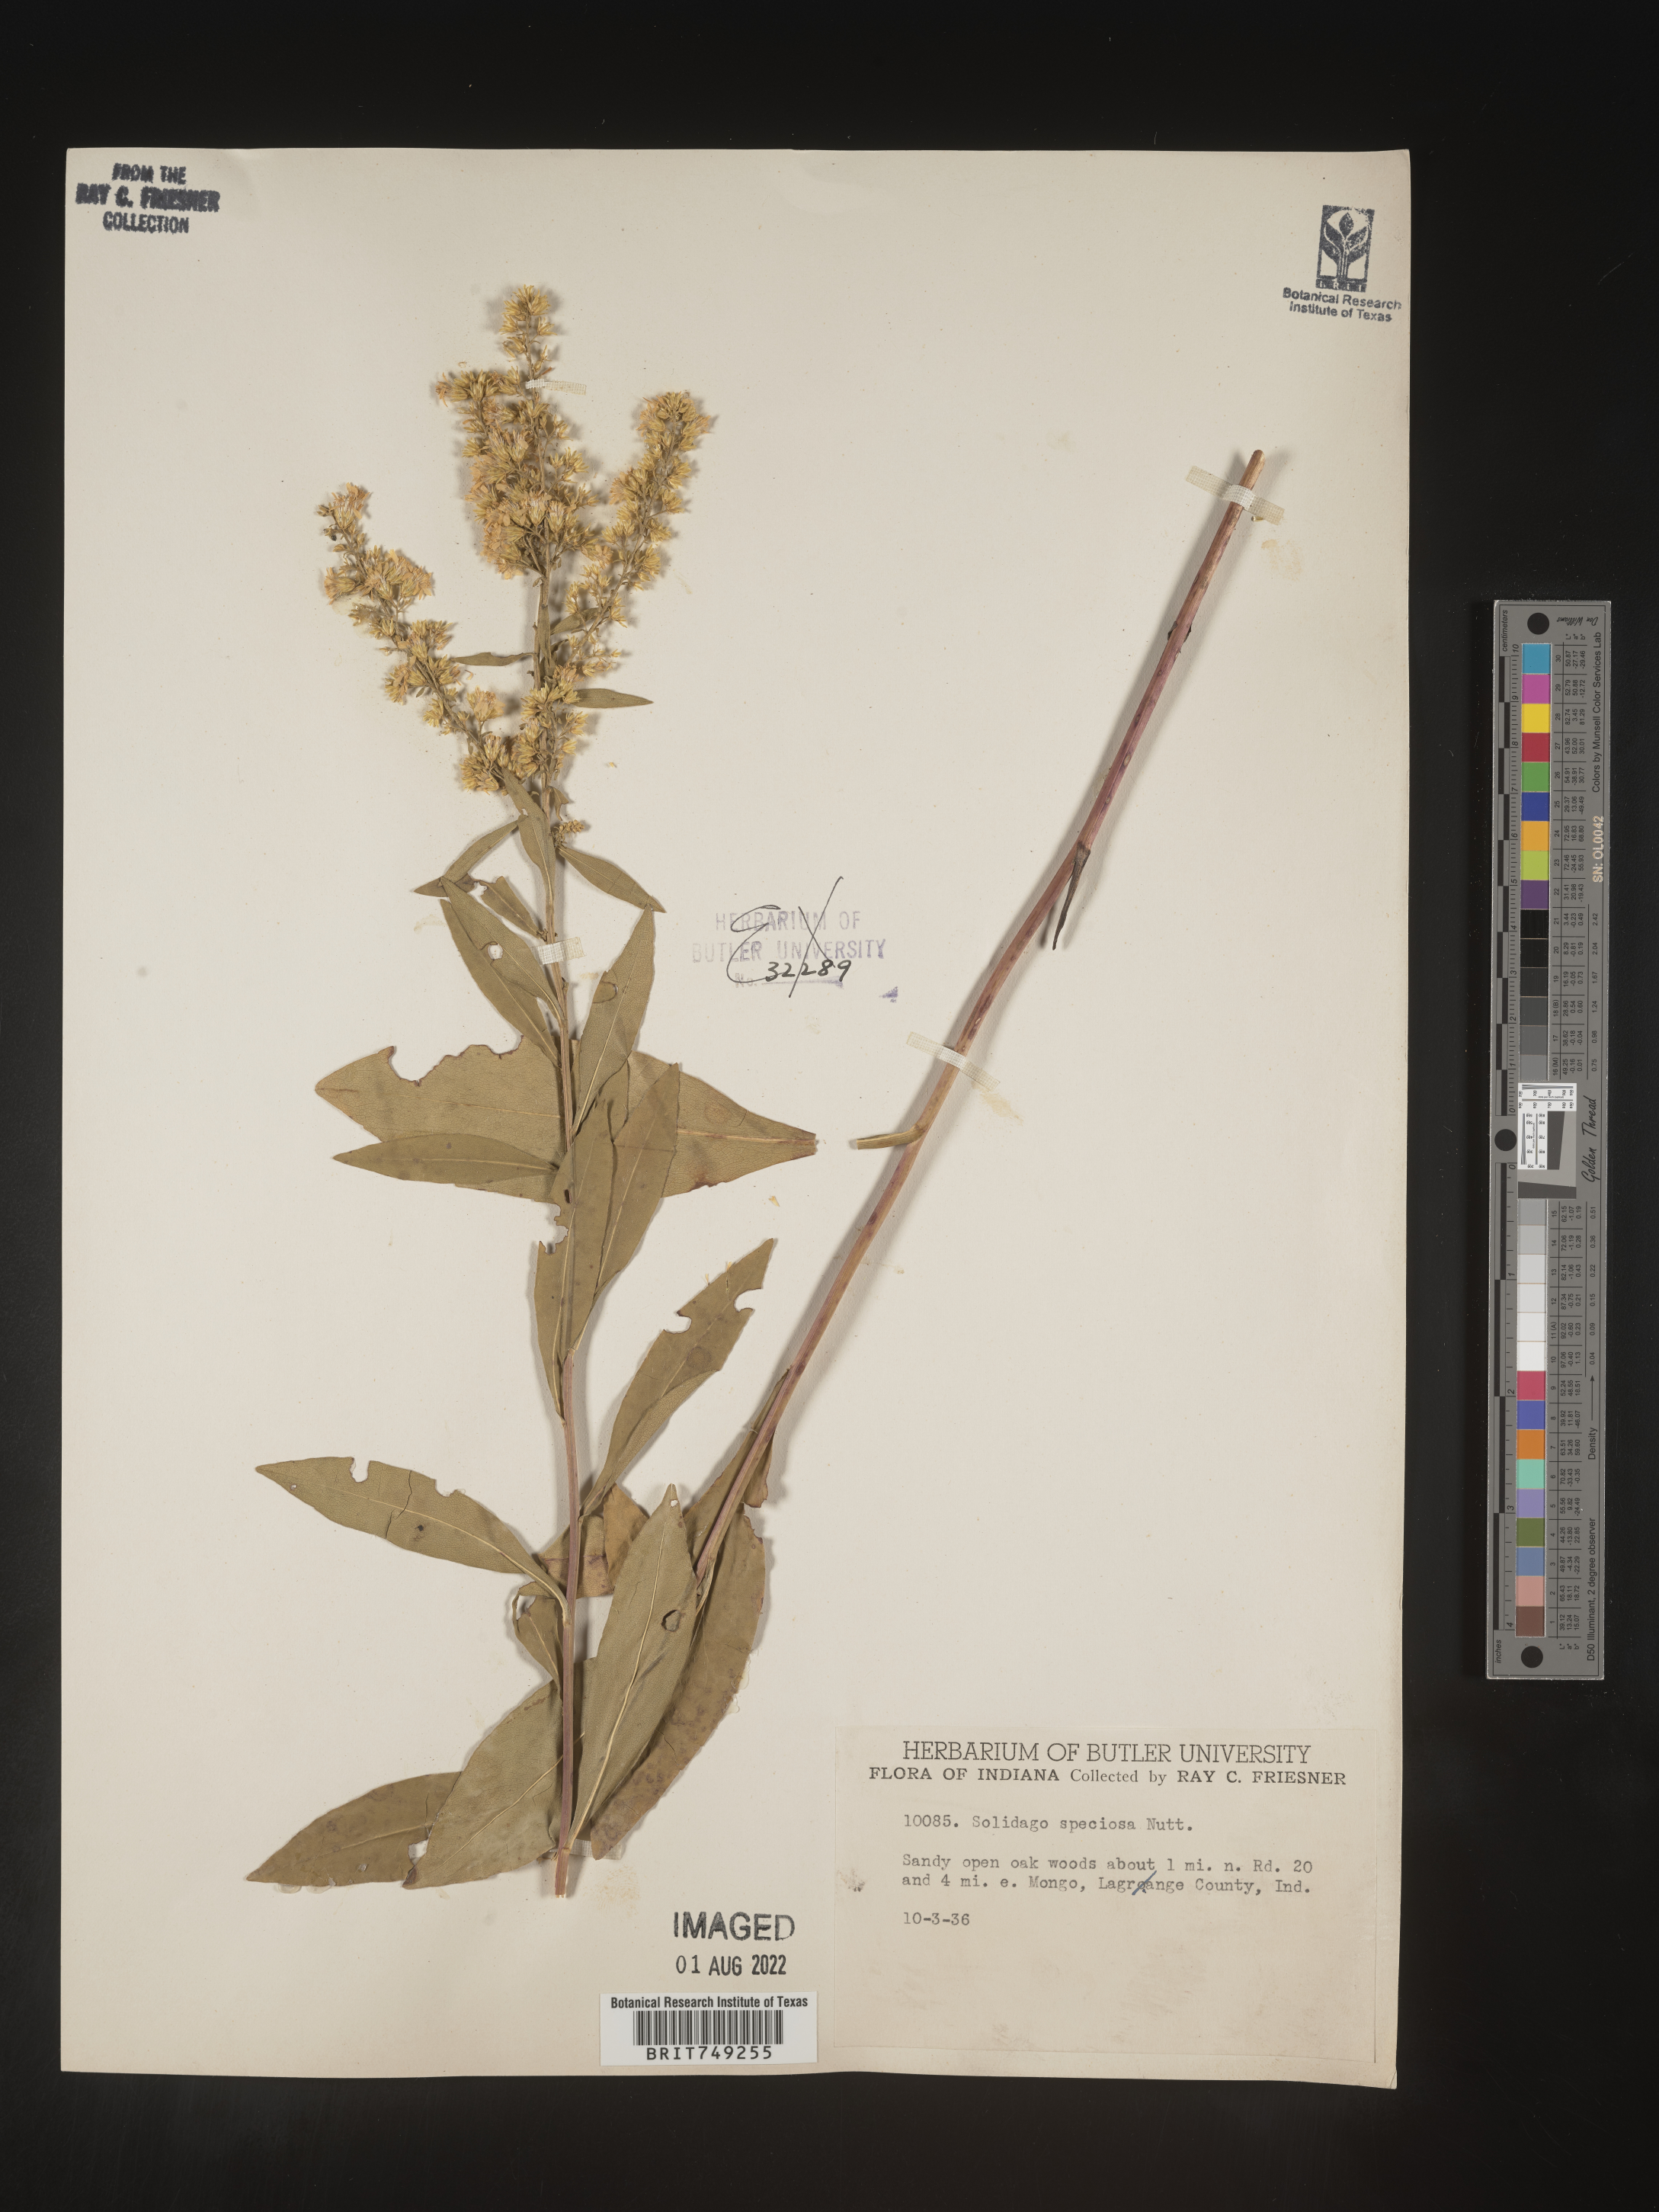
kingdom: Plantae
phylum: Tracheophyta
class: Magnoliopsida
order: Asterales
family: Asteraceae
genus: Solidago
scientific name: Solidago speciosa
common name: Showy goldenrod
